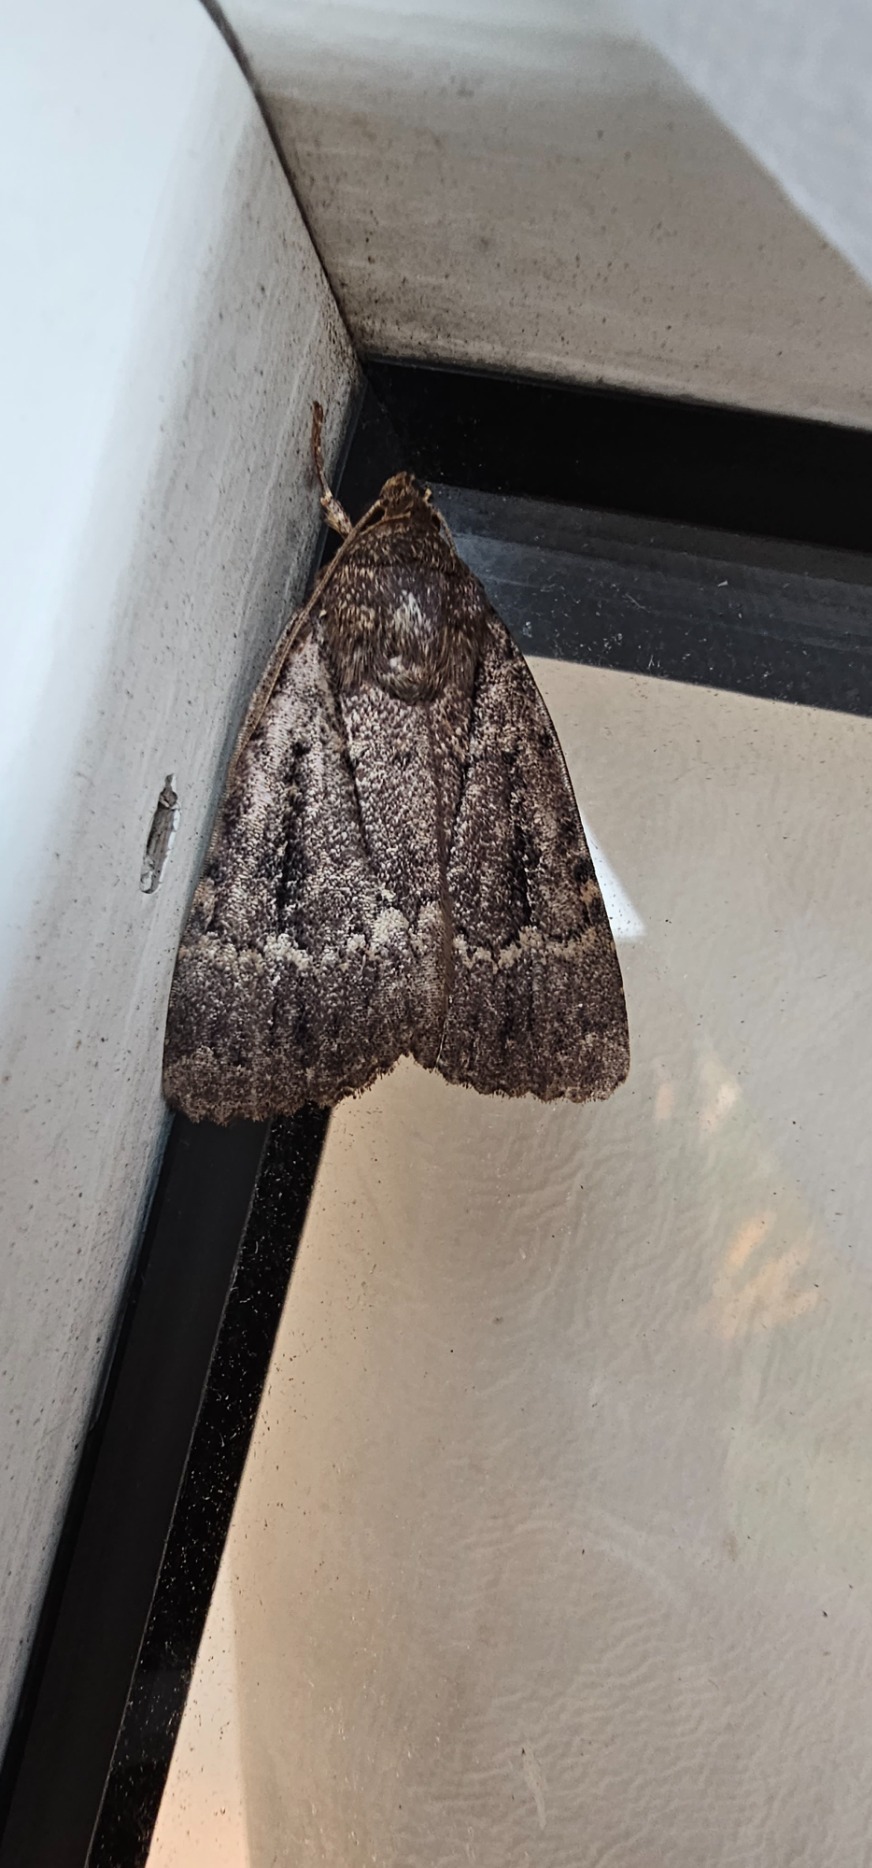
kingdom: Animalia
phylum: Arthropoda
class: Insecta
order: Lepidoptera
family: Noctuidae
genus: Amphipyra
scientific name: Amphipyra pyramidea
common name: Pyramideugle
